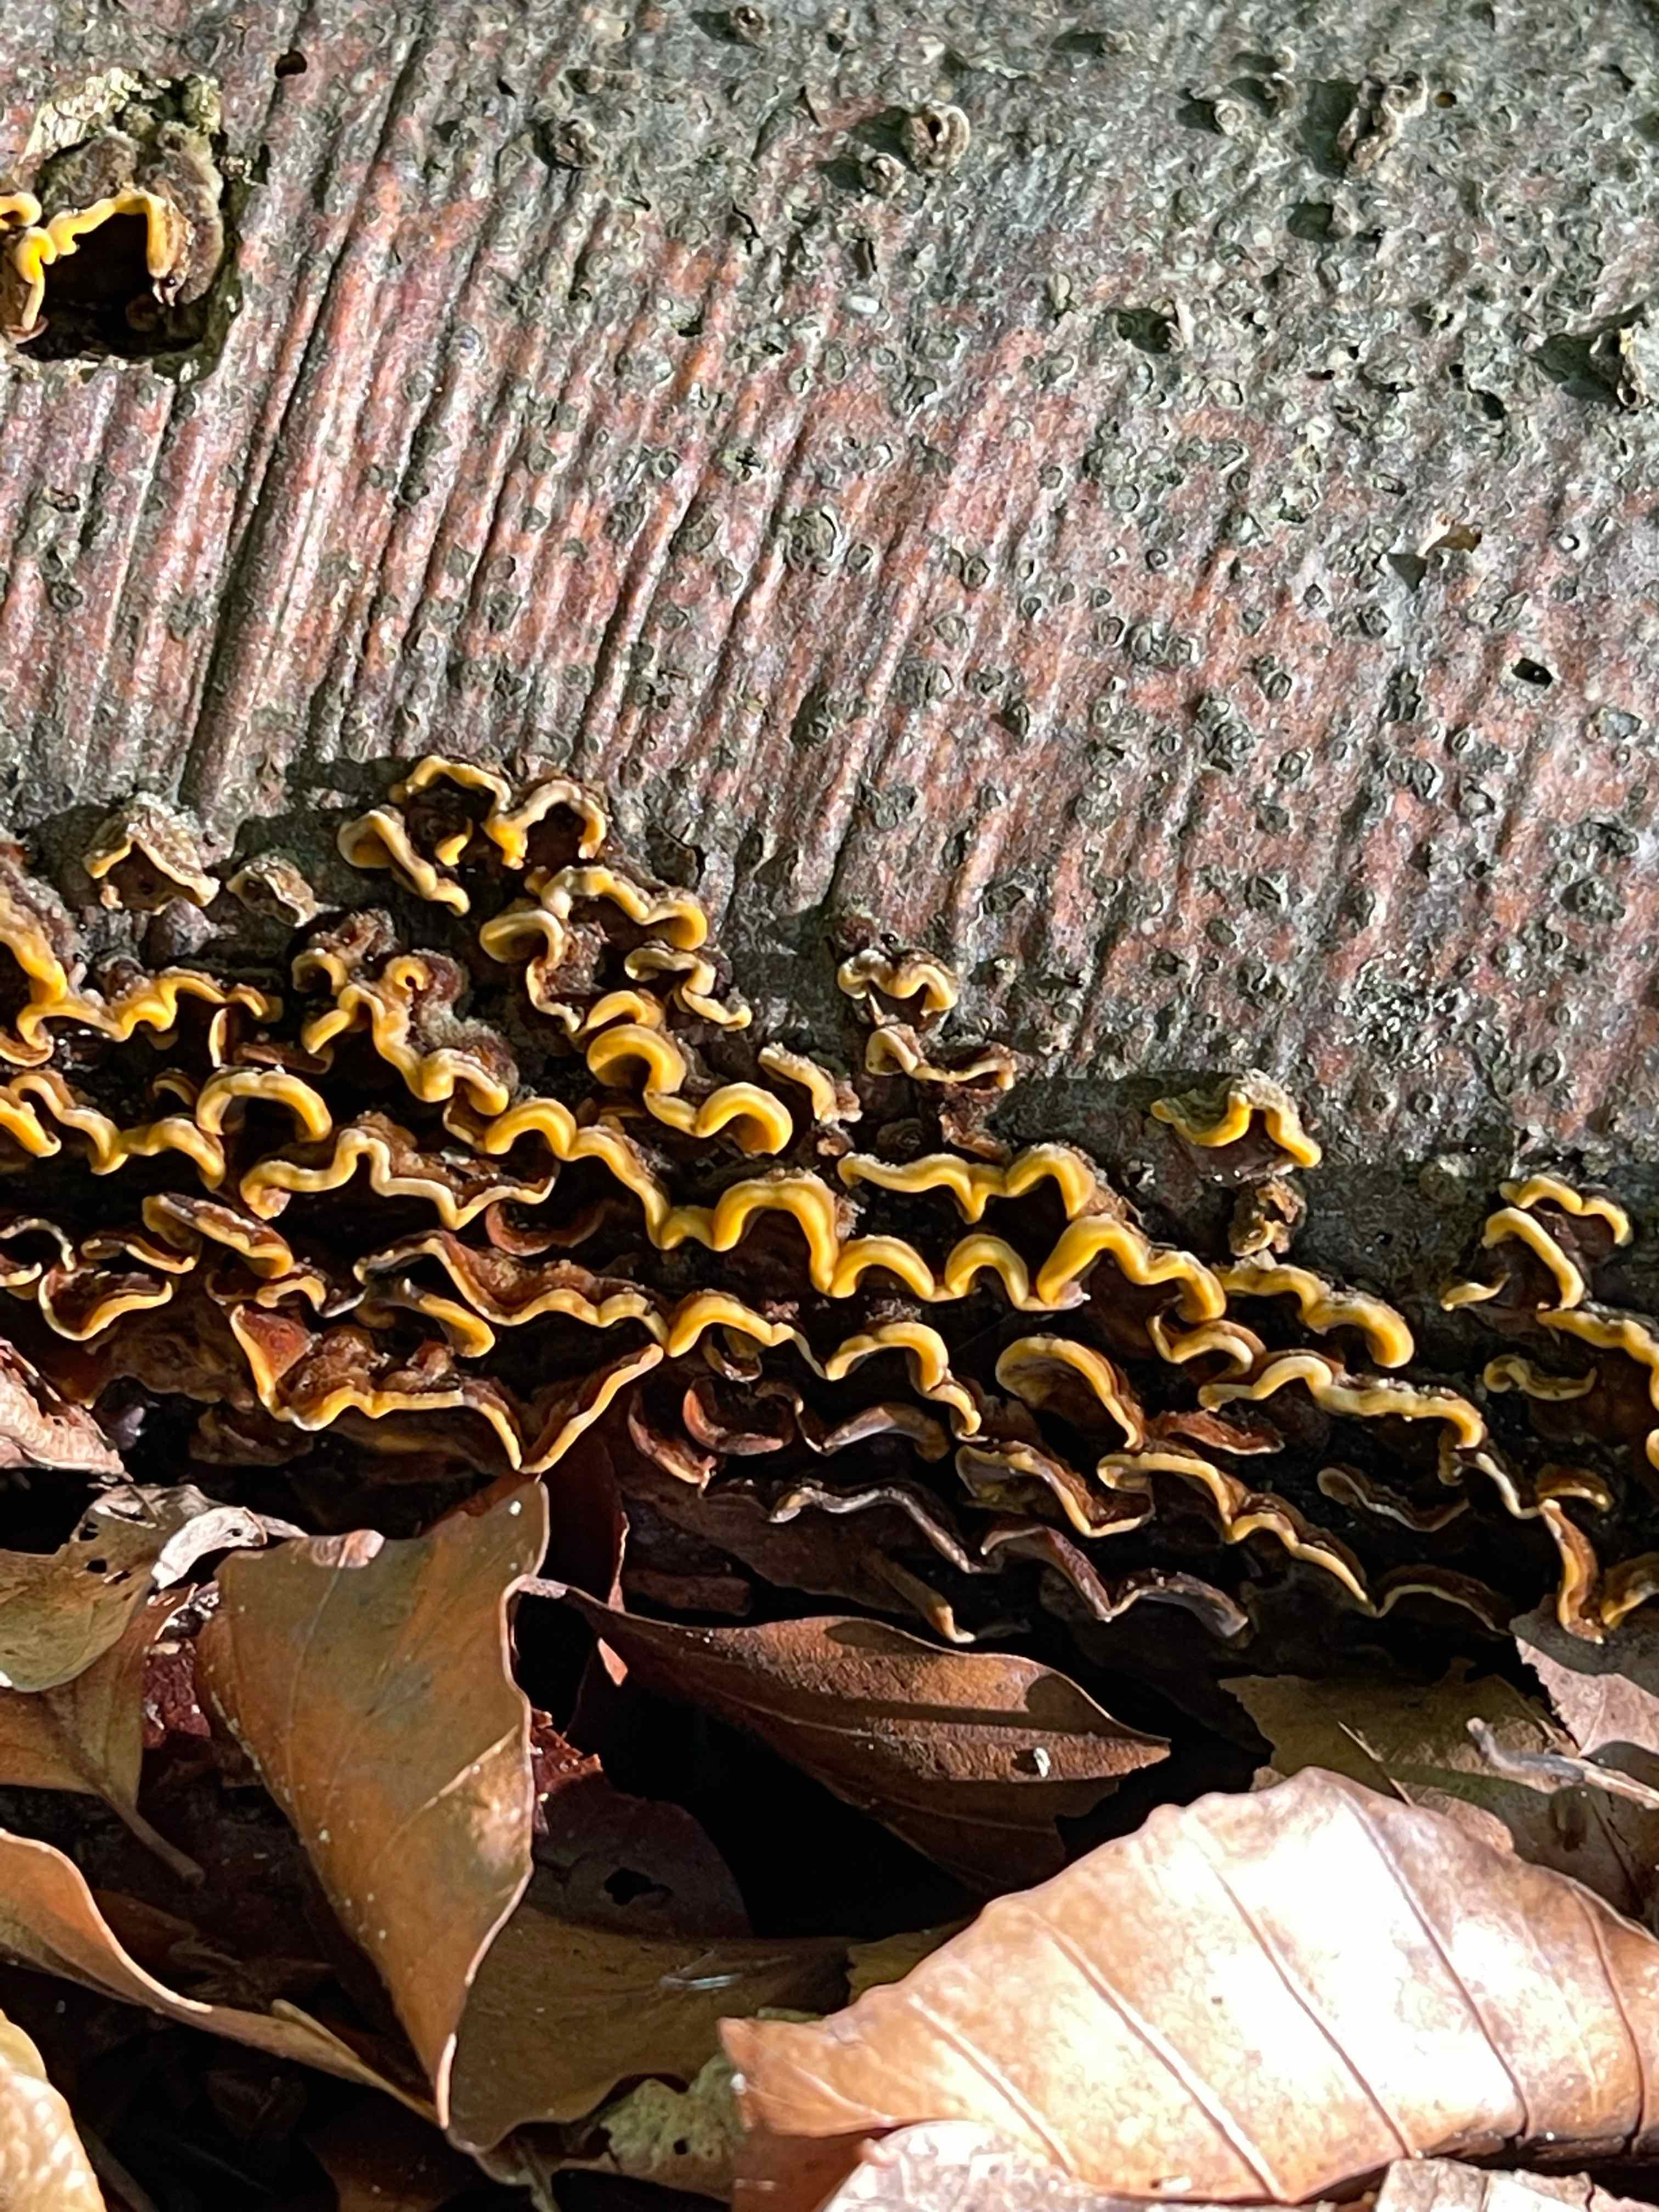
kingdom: Fungi
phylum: Basidiomycota
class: Agaricomycetes
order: Russulales
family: Stereaceae
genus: Stereum
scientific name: Stereum hirsutum
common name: håret lædersvamp
